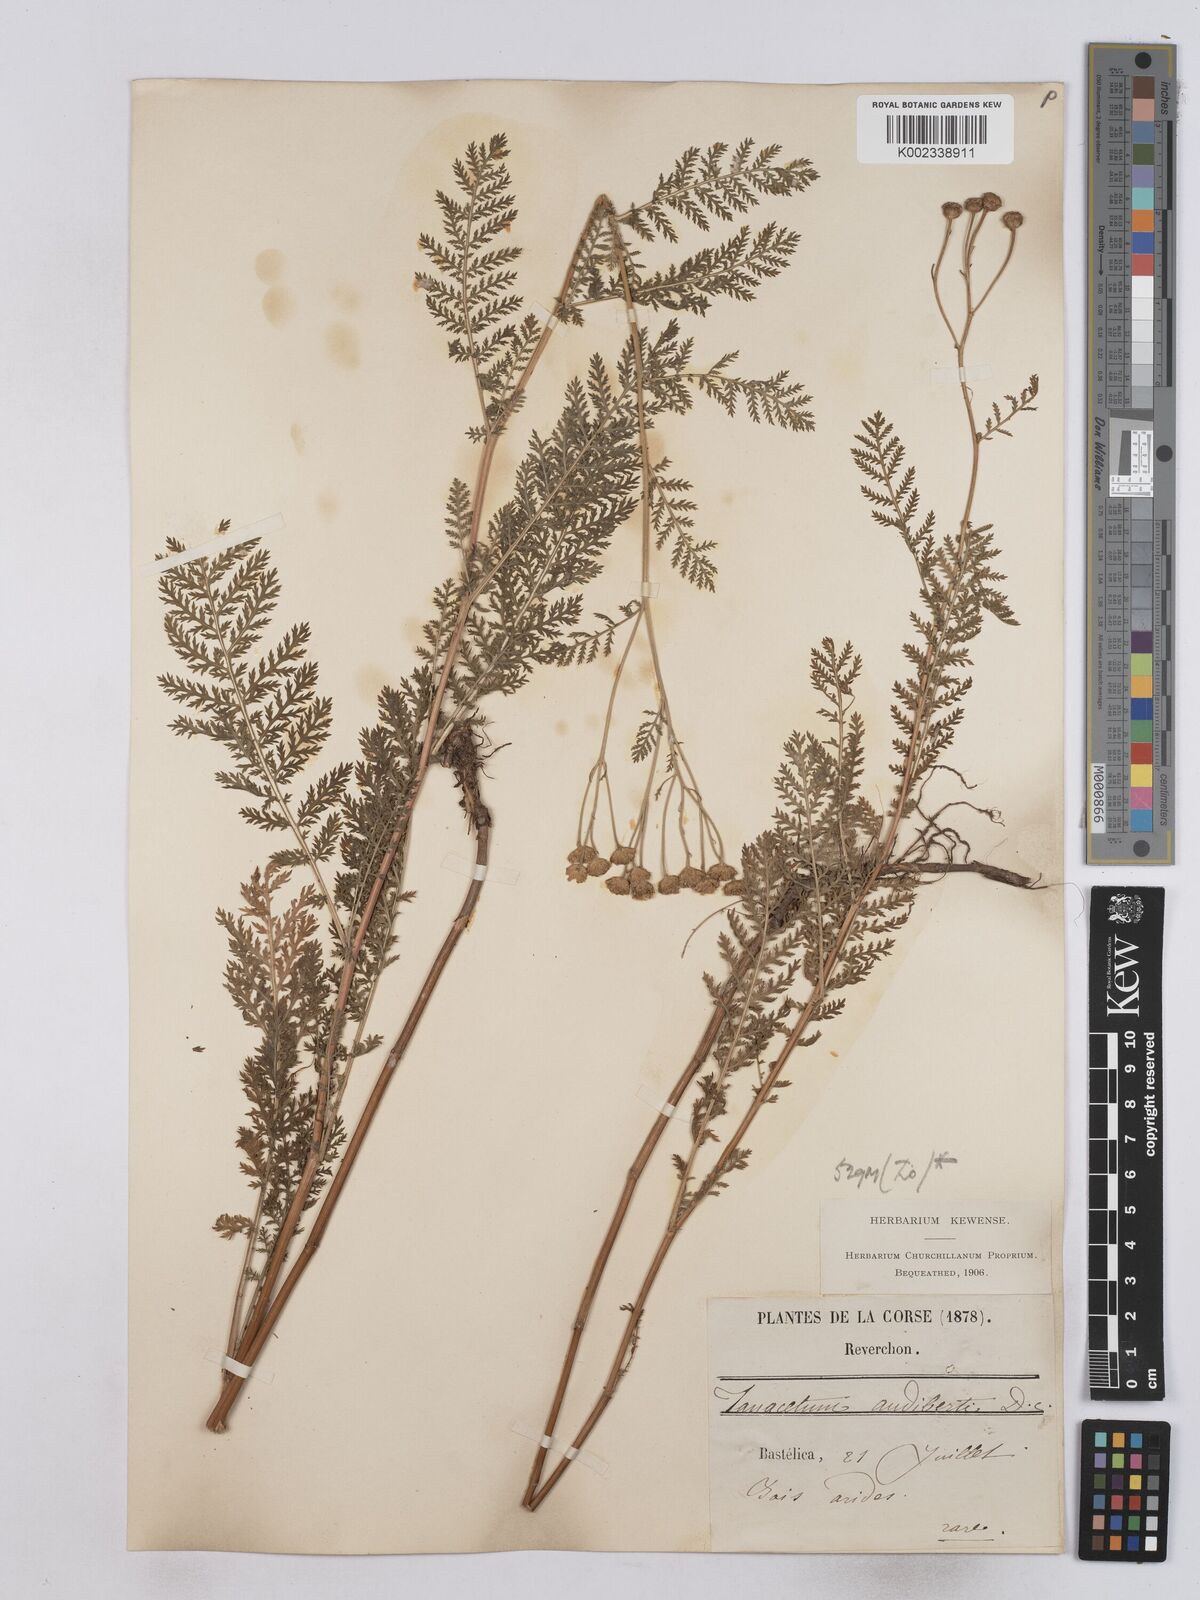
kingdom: Plantae
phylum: Tracheophyta
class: Magnoliopsida
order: Asterales
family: Asteraceae
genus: Tanacetum
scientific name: Tanacetum audibertii
